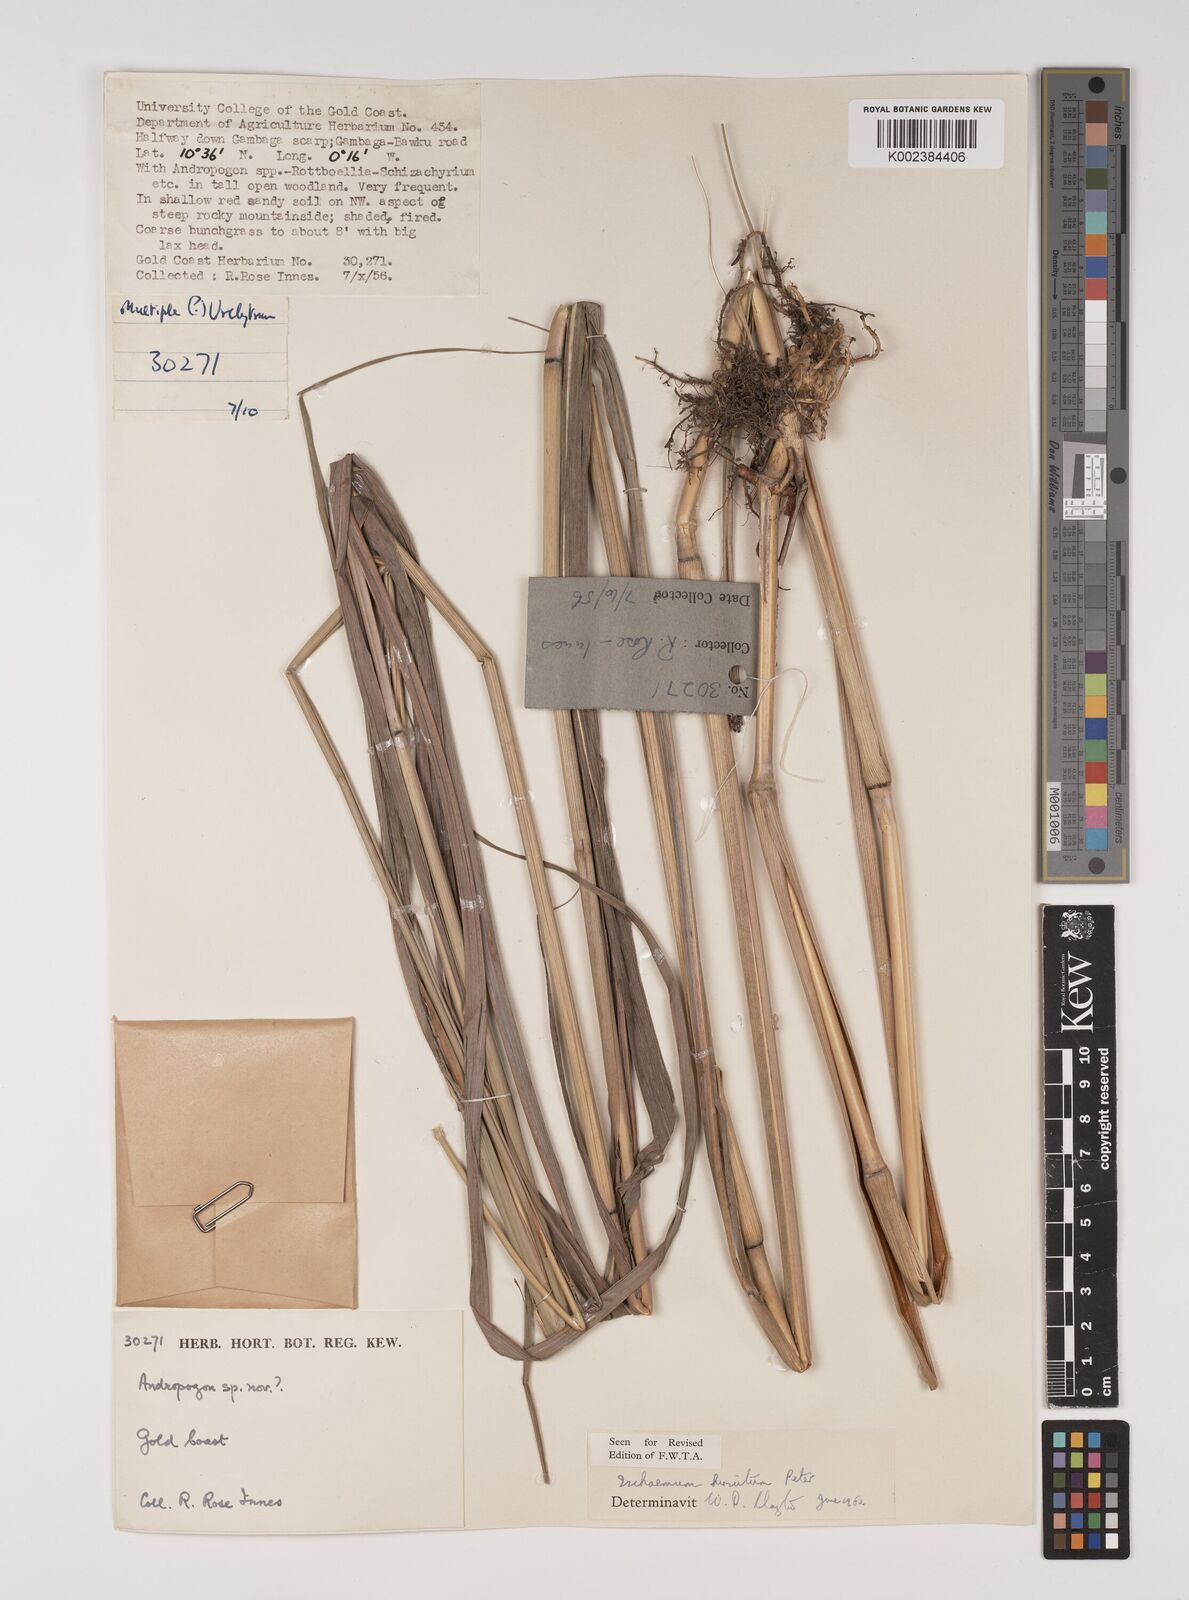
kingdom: Plantae
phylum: Tracheophyta
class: Liliopsida
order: Poales
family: Poaceae
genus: Rottboellia
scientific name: Rottboellia villosa
